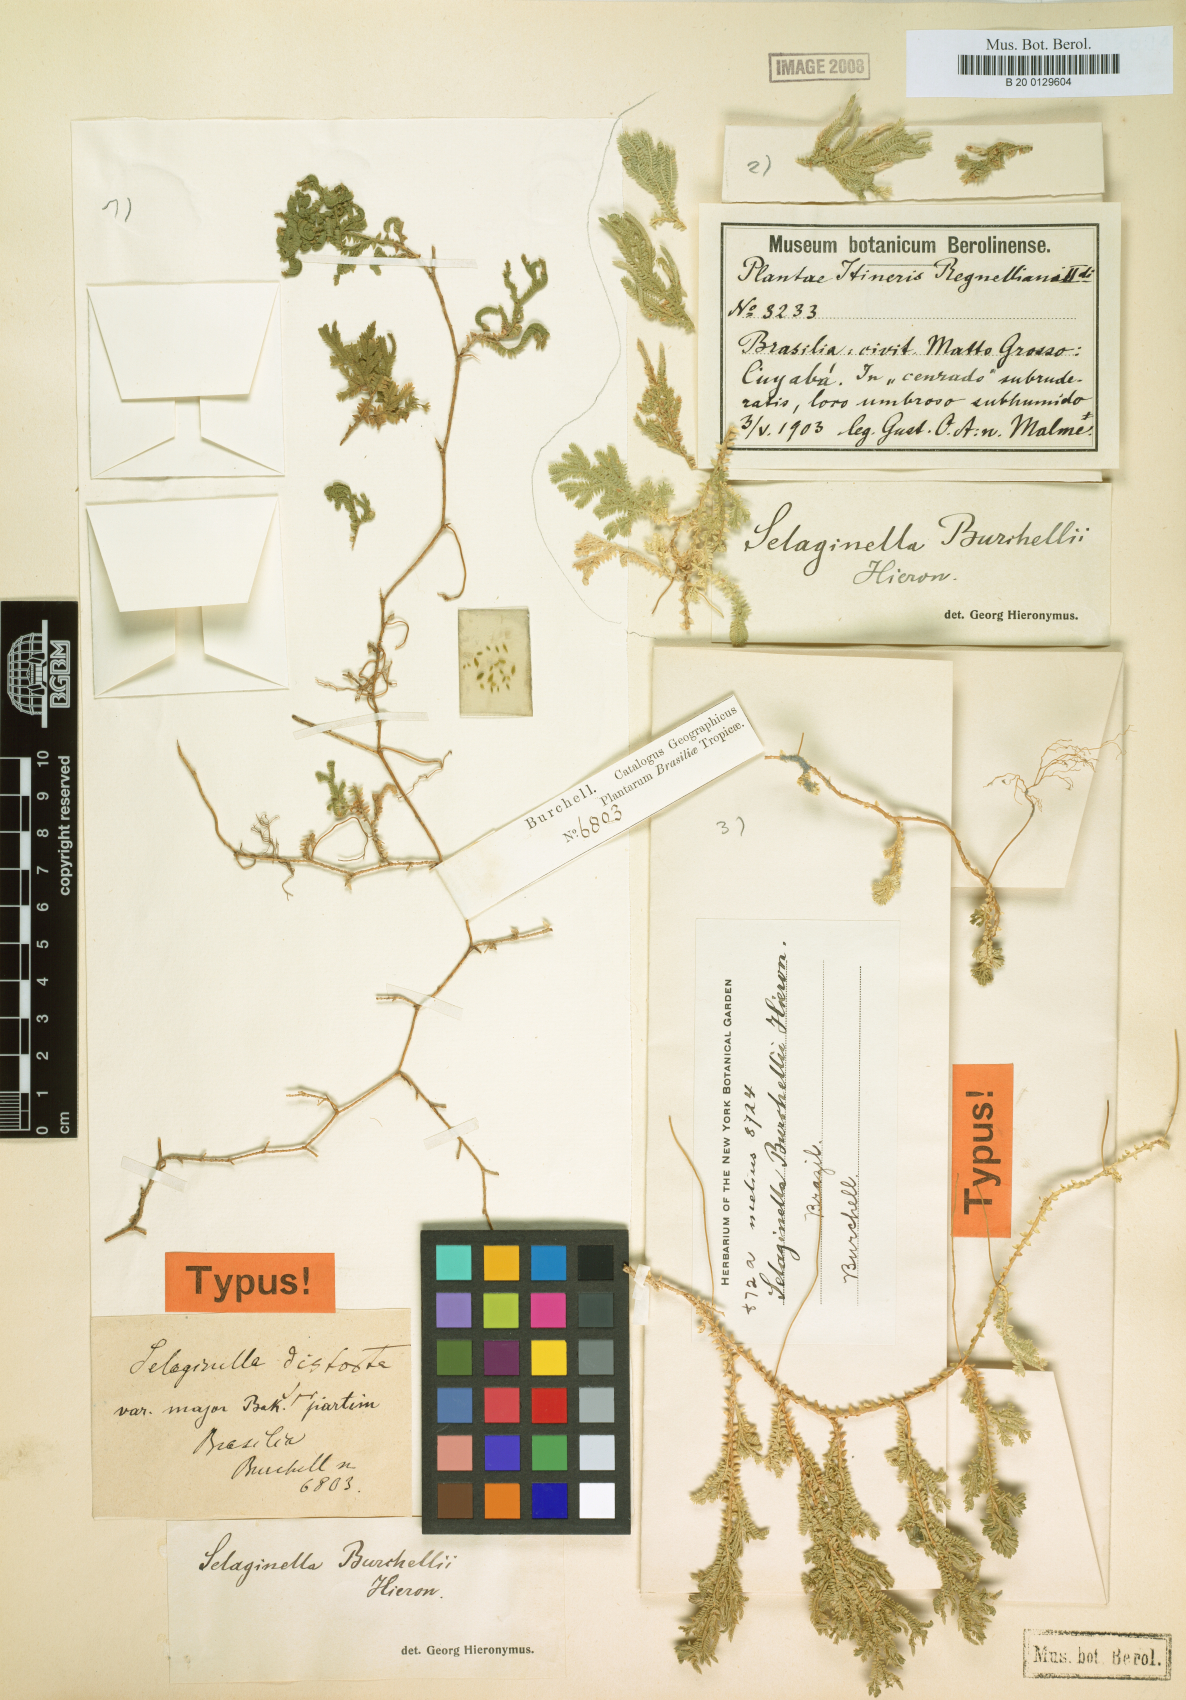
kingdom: Plantae
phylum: Tracheophyta
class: Lycopodiopsida
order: Selaginellales
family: Selaginellaceae
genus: Selaginella
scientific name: Selaginella marginata
